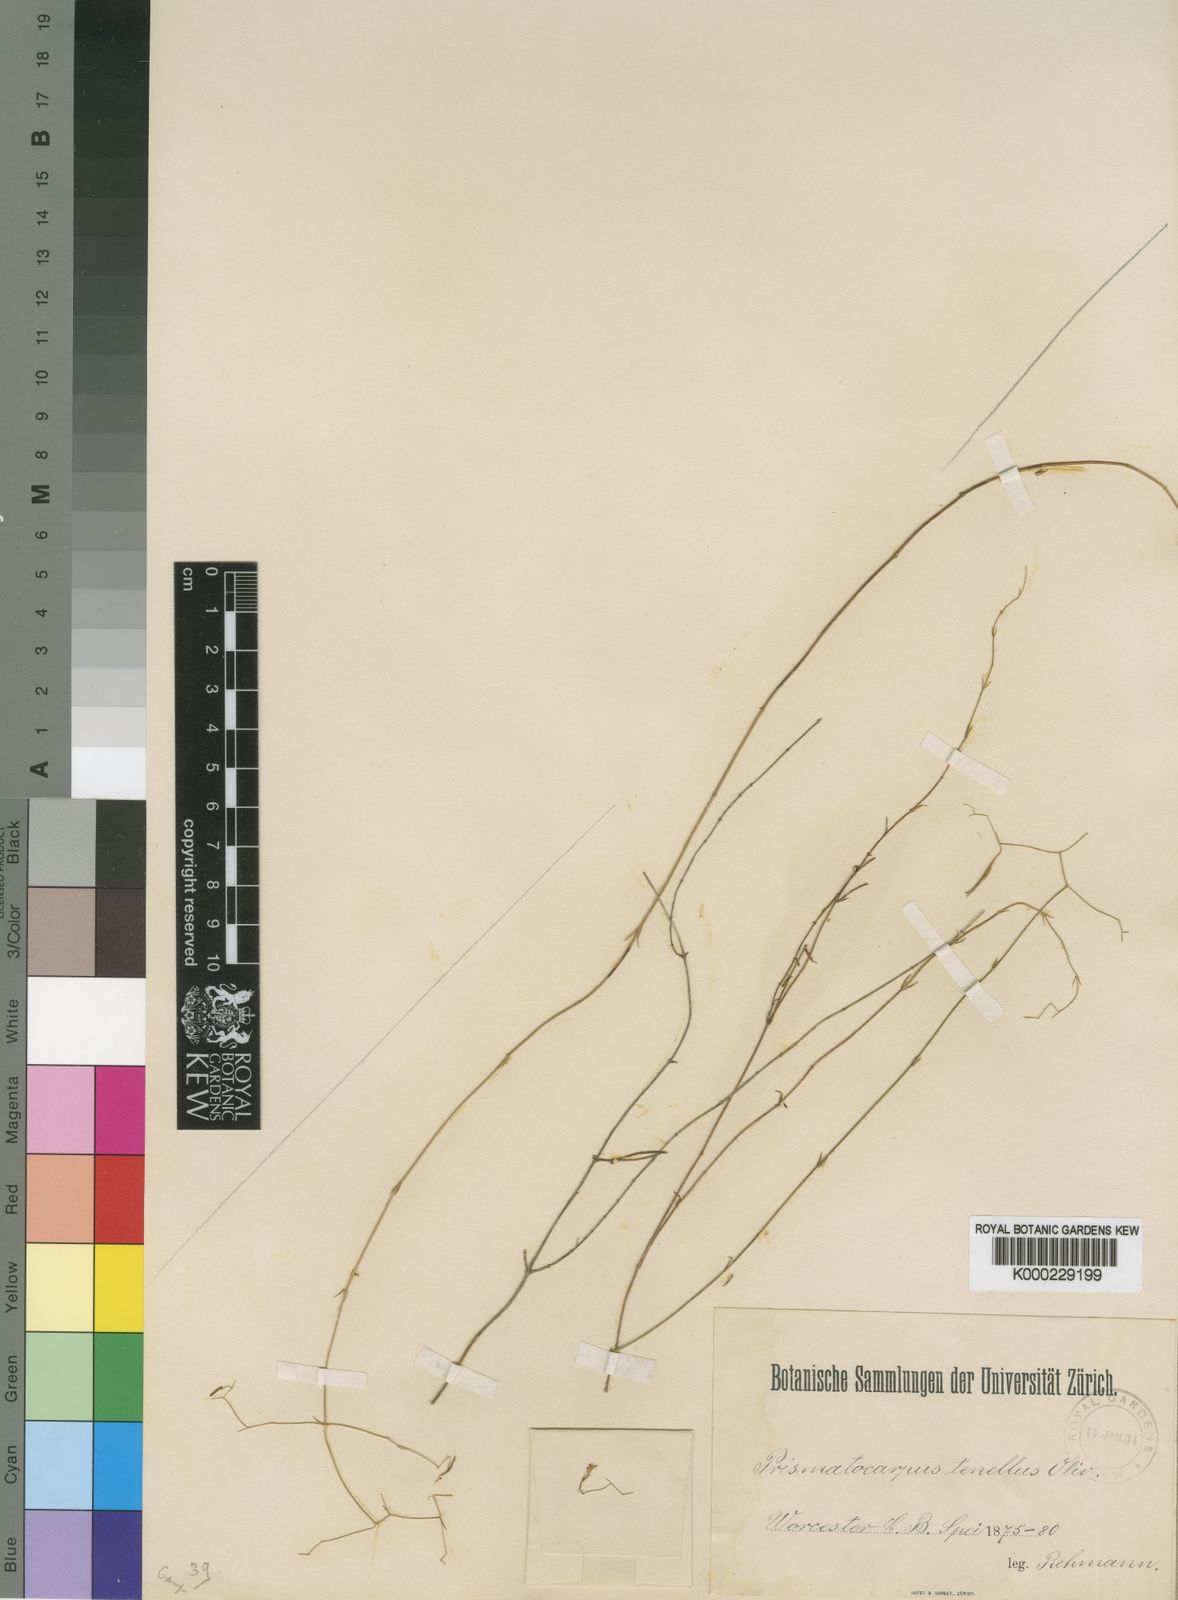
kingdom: Plantae
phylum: Tracheophyta
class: Magnoliopsida
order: Asterales
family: Campanulaceae
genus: Prismatocarpus
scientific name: Prismatocarpus tenellus
